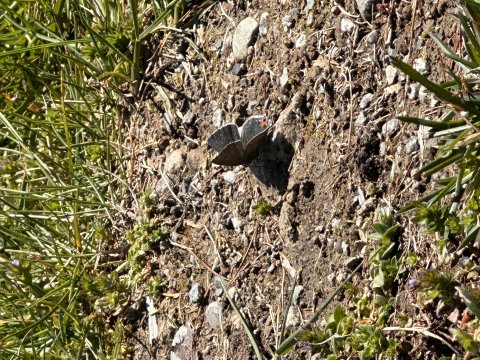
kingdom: Animalia
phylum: Arthropoda
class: Insecta
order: Lepidoptera
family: Lycaenidae
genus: Strymon
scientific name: Strymon melinus
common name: Gray Hairstreak
